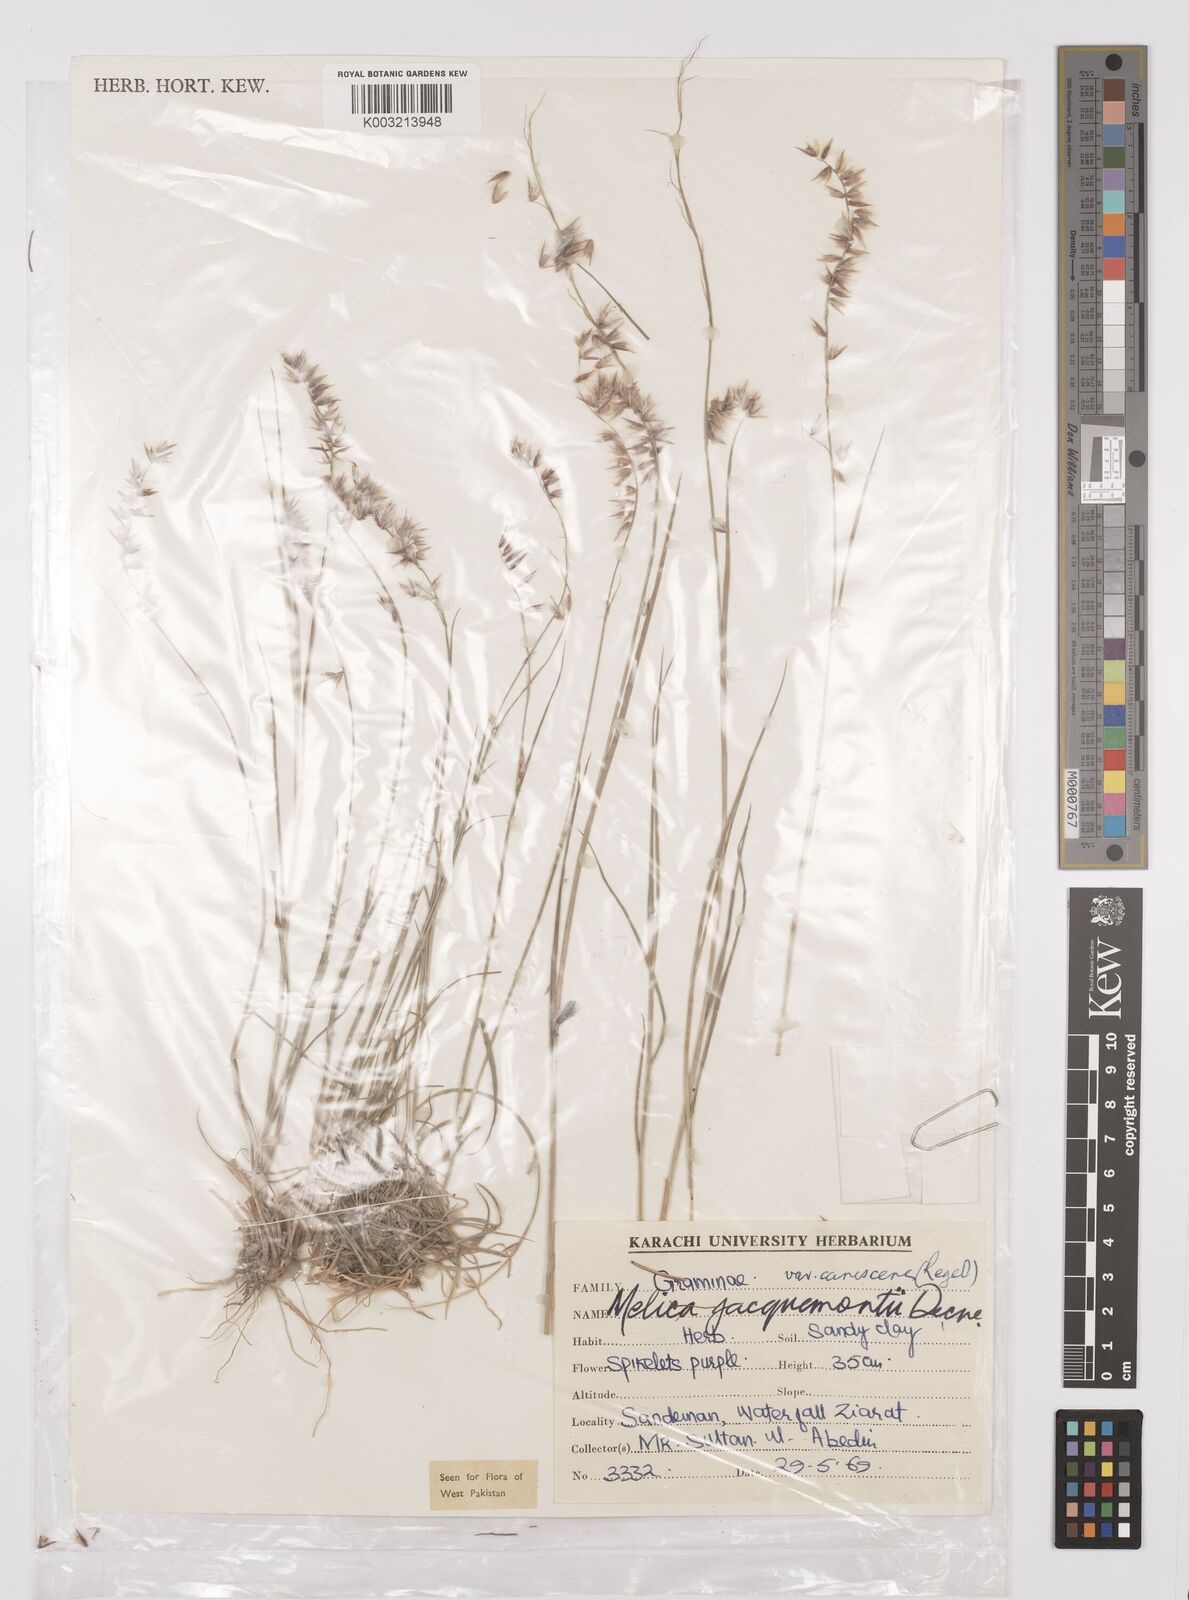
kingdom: Plantae
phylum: Tracheophyta
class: Liliopsida
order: Poales
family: Poaceae
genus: Melica
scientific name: Melica persica
